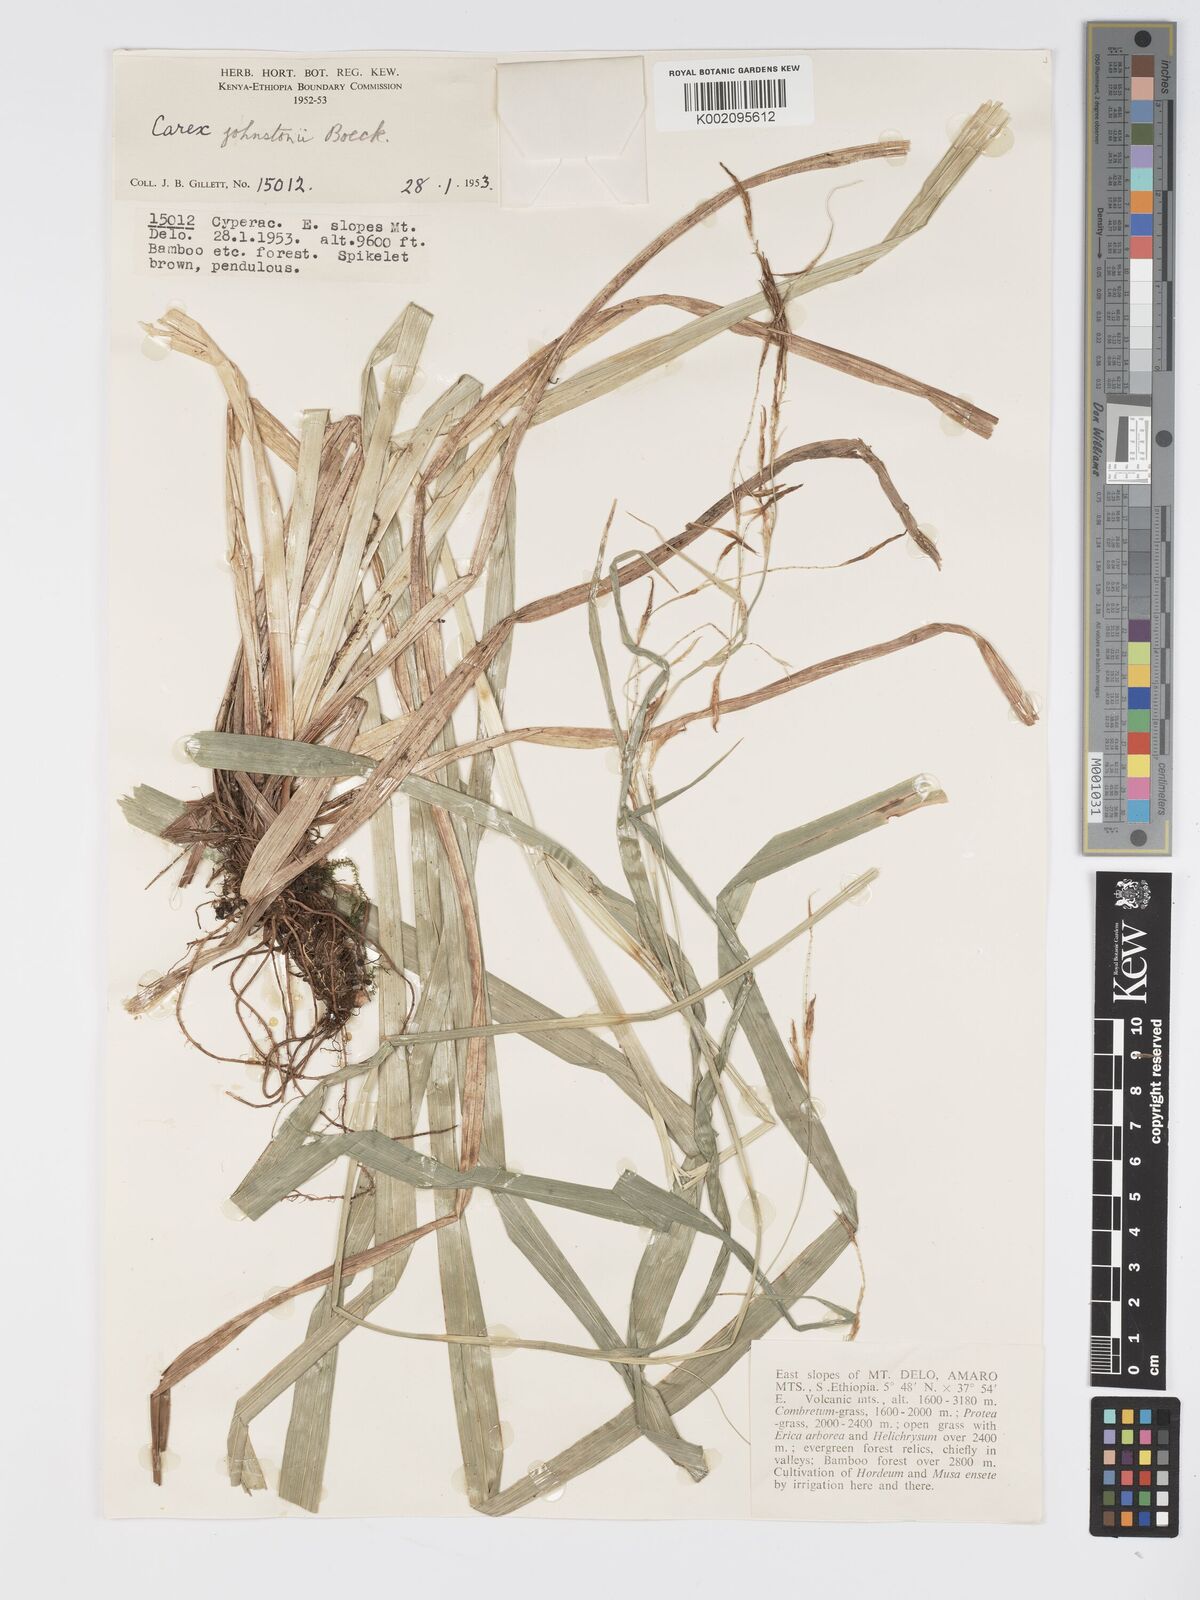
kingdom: Plantae
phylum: Tracheophyta
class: Liliopsida
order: Poales
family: Cyperaceae
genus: Carex
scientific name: Carex johnstonii
